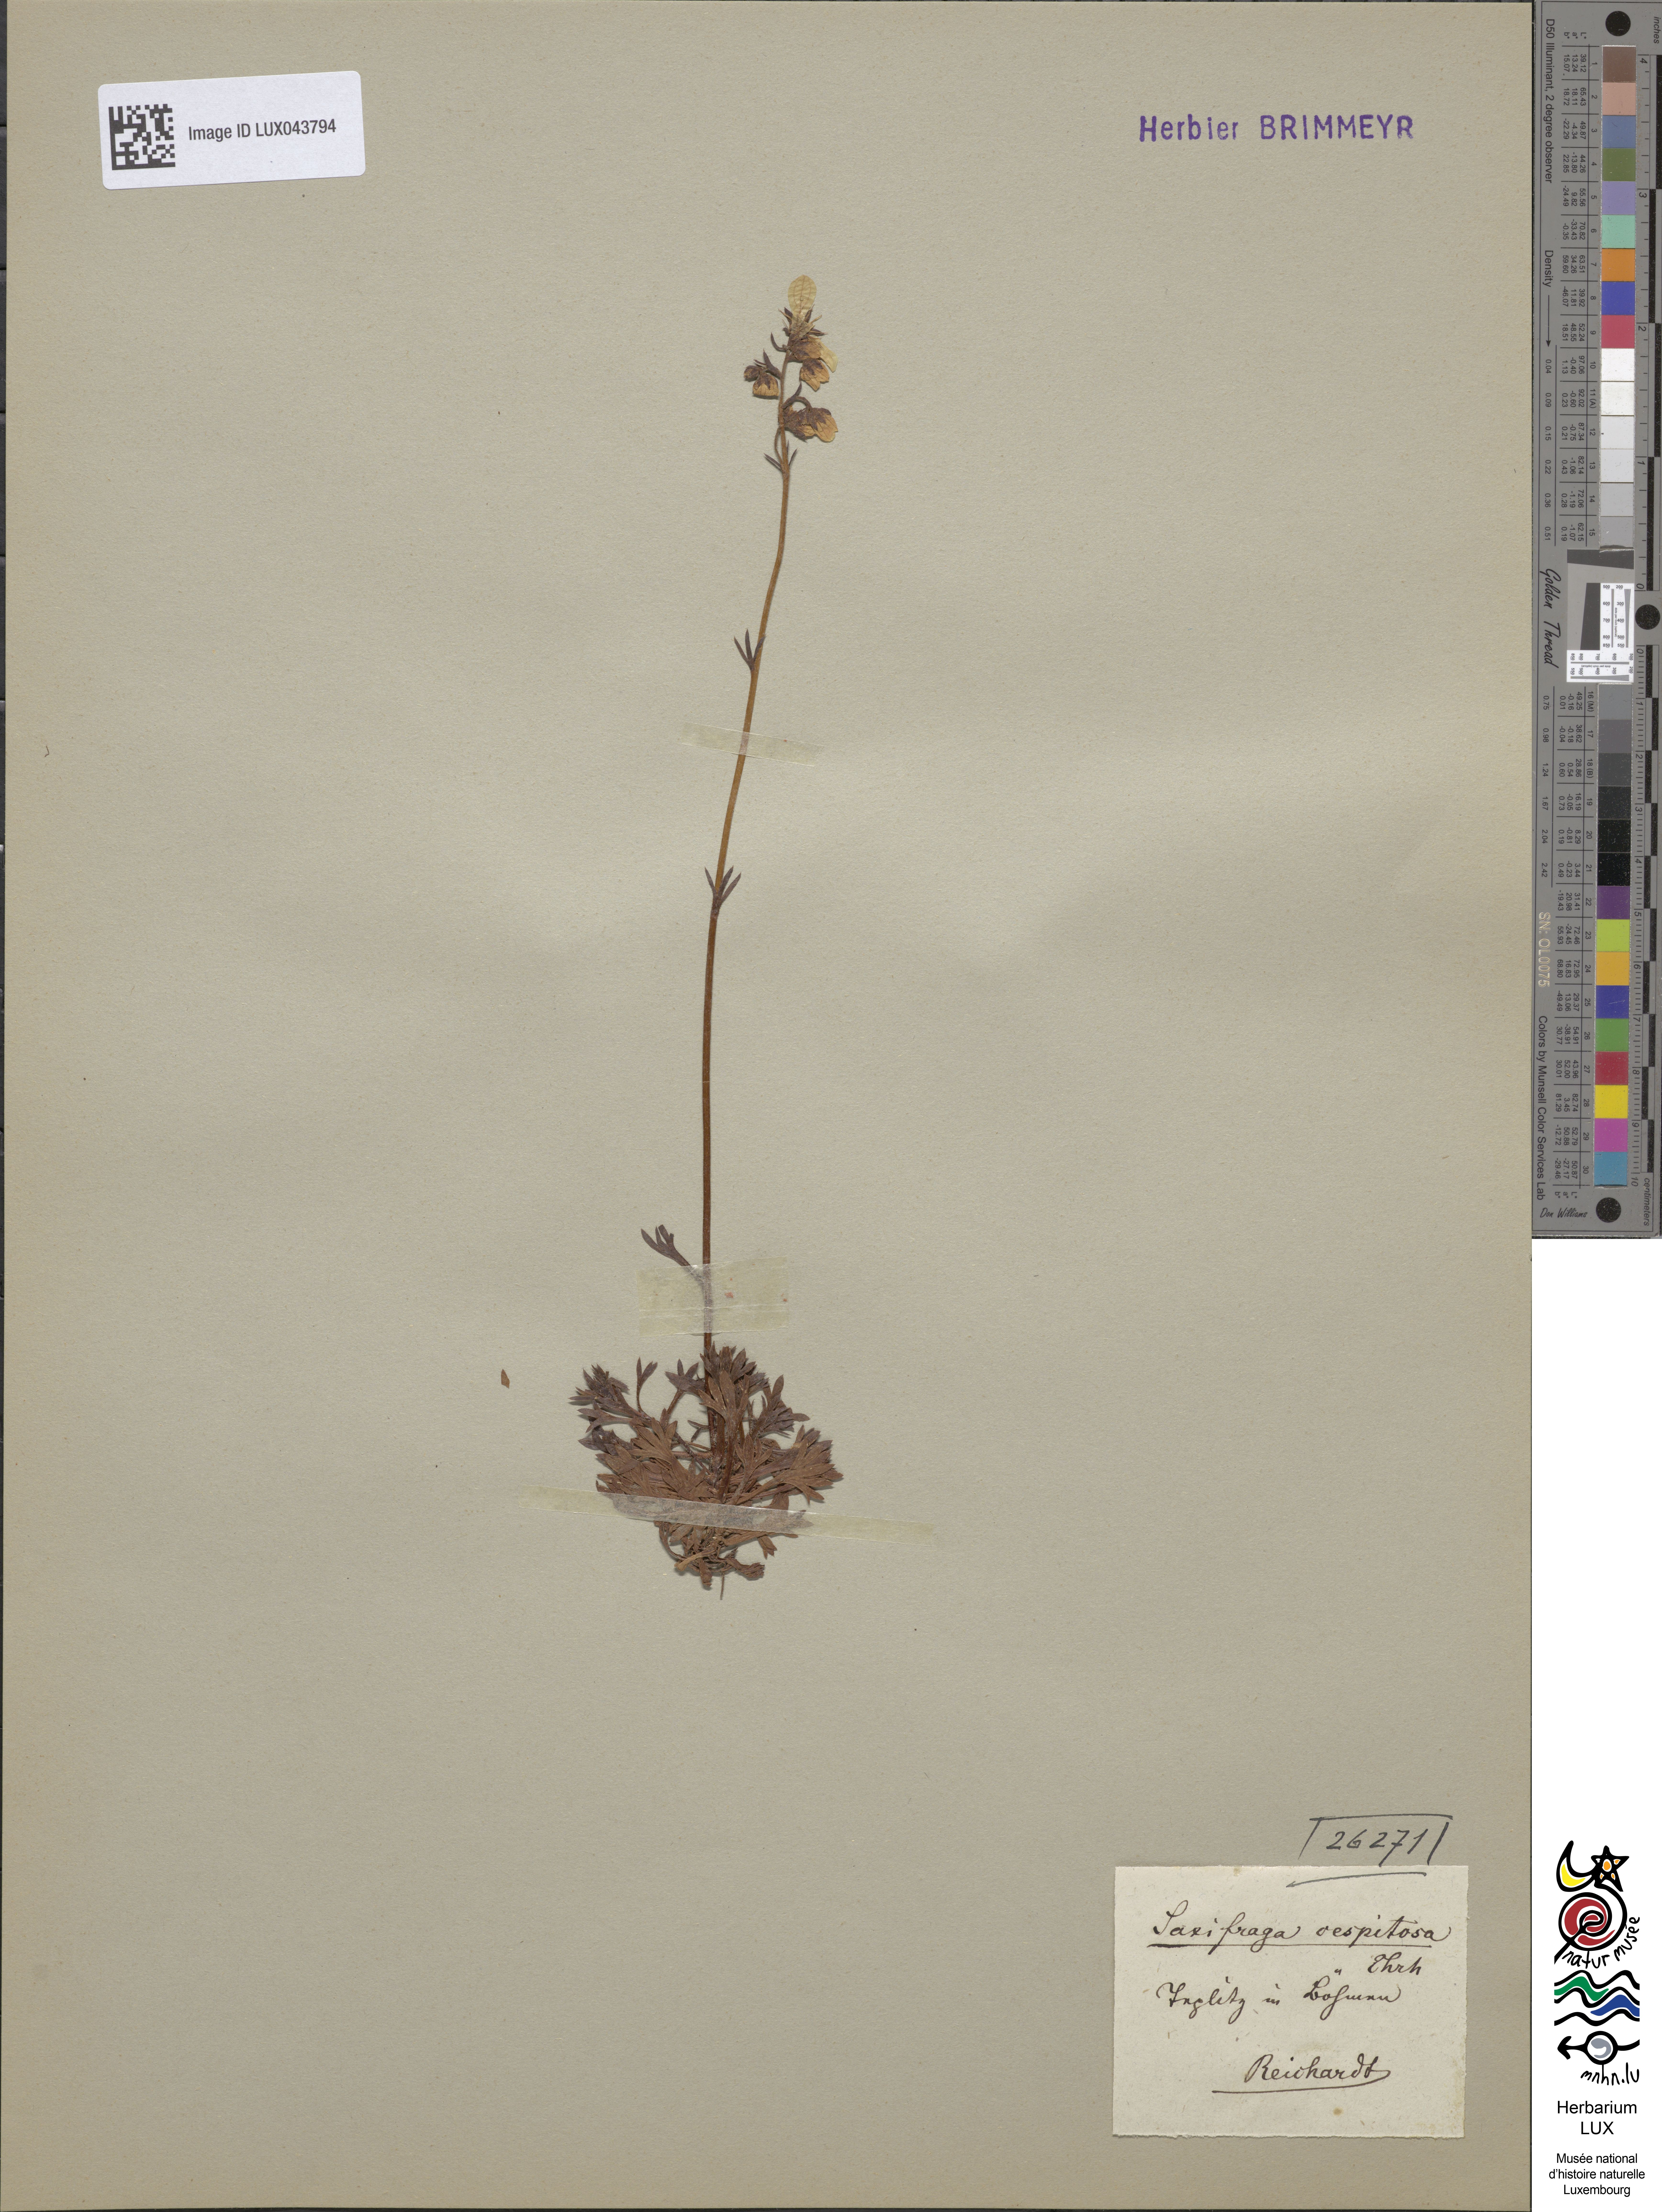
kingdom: Plantae
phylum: Tracheophyta
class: Magnoliopsida
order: Saxifragales
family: Saxifragaceae
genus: Saxifraga
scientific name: Saxifraga cespitosa
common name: Tufted saxifrage
